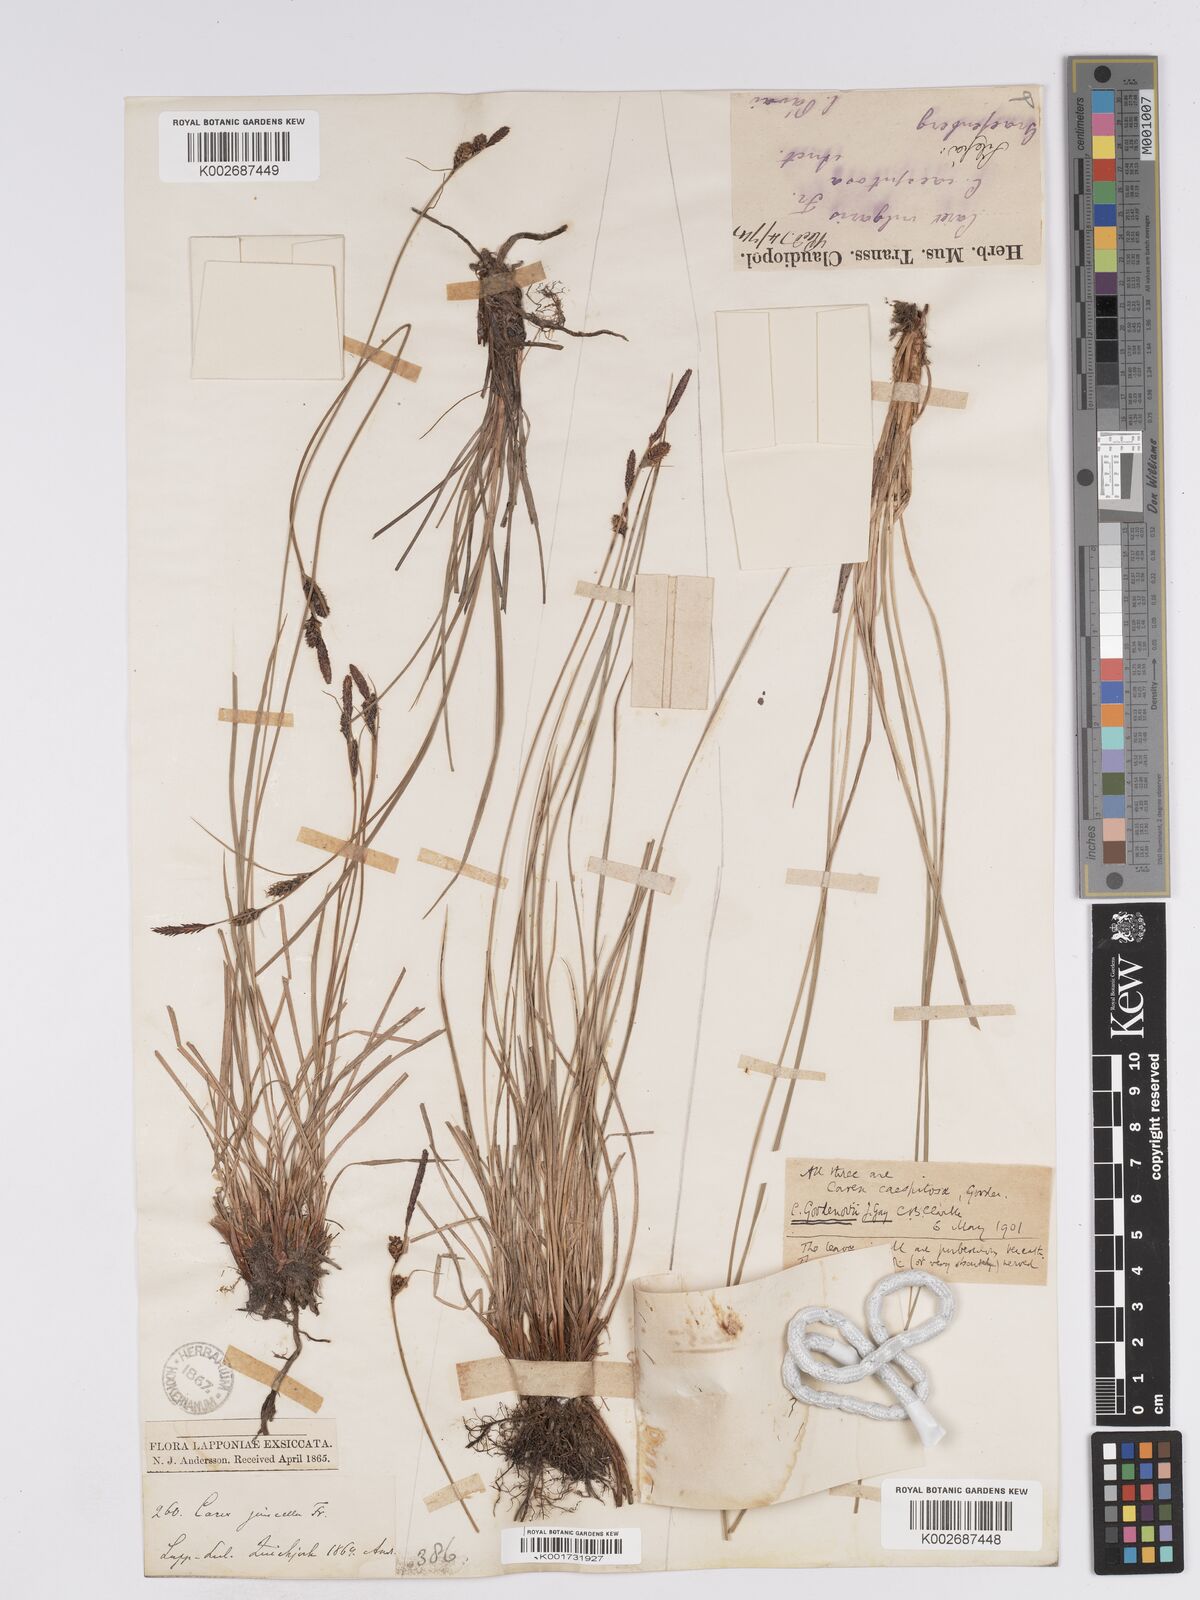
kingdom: Plantae
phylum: Tracheophyta
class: Liliopsida
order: Poales
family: Cyperaceae
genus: Carex
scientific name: Carex nigra
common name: Common sedge
